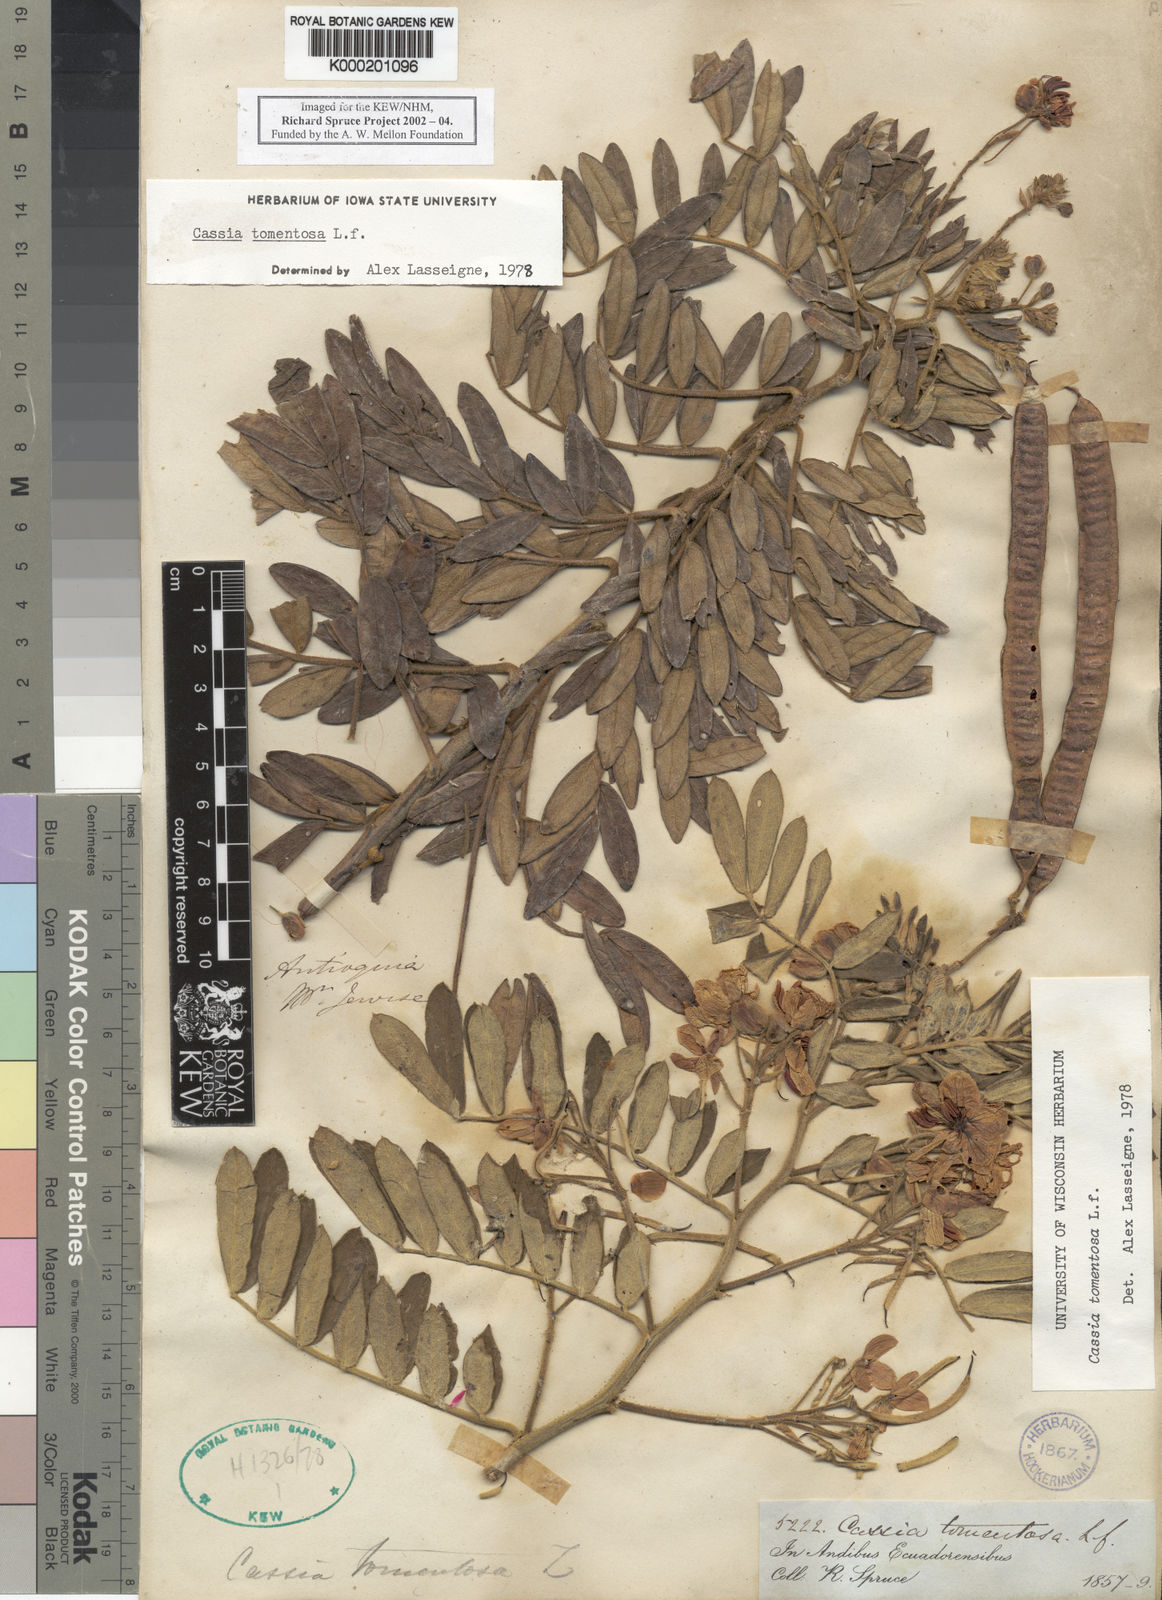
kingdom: Plantae
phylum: Tracheophyta
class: Magnoliopsida
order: Fabales
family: Fabaceae
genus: Senna
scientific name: Senna multiglandulosa
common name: Glandular senna
